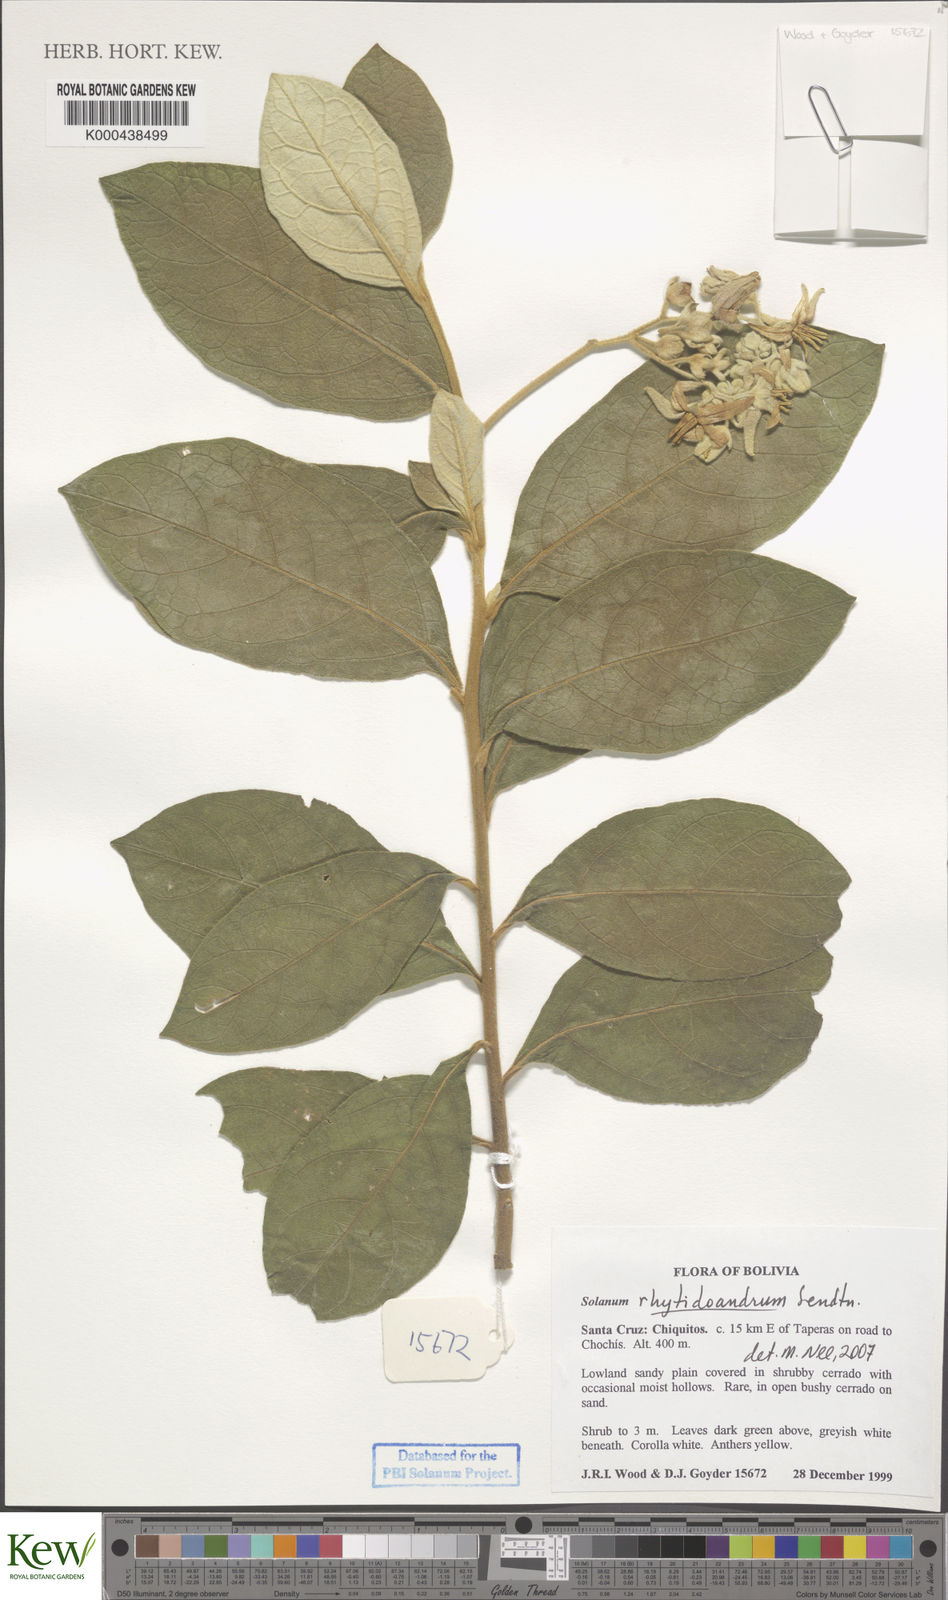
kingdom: Plantae
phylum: Tracheophyta
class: Magnoliopsida
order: Solanales
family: Solanaceae
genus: Solanum
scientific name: Solanum rhytidoandrum
